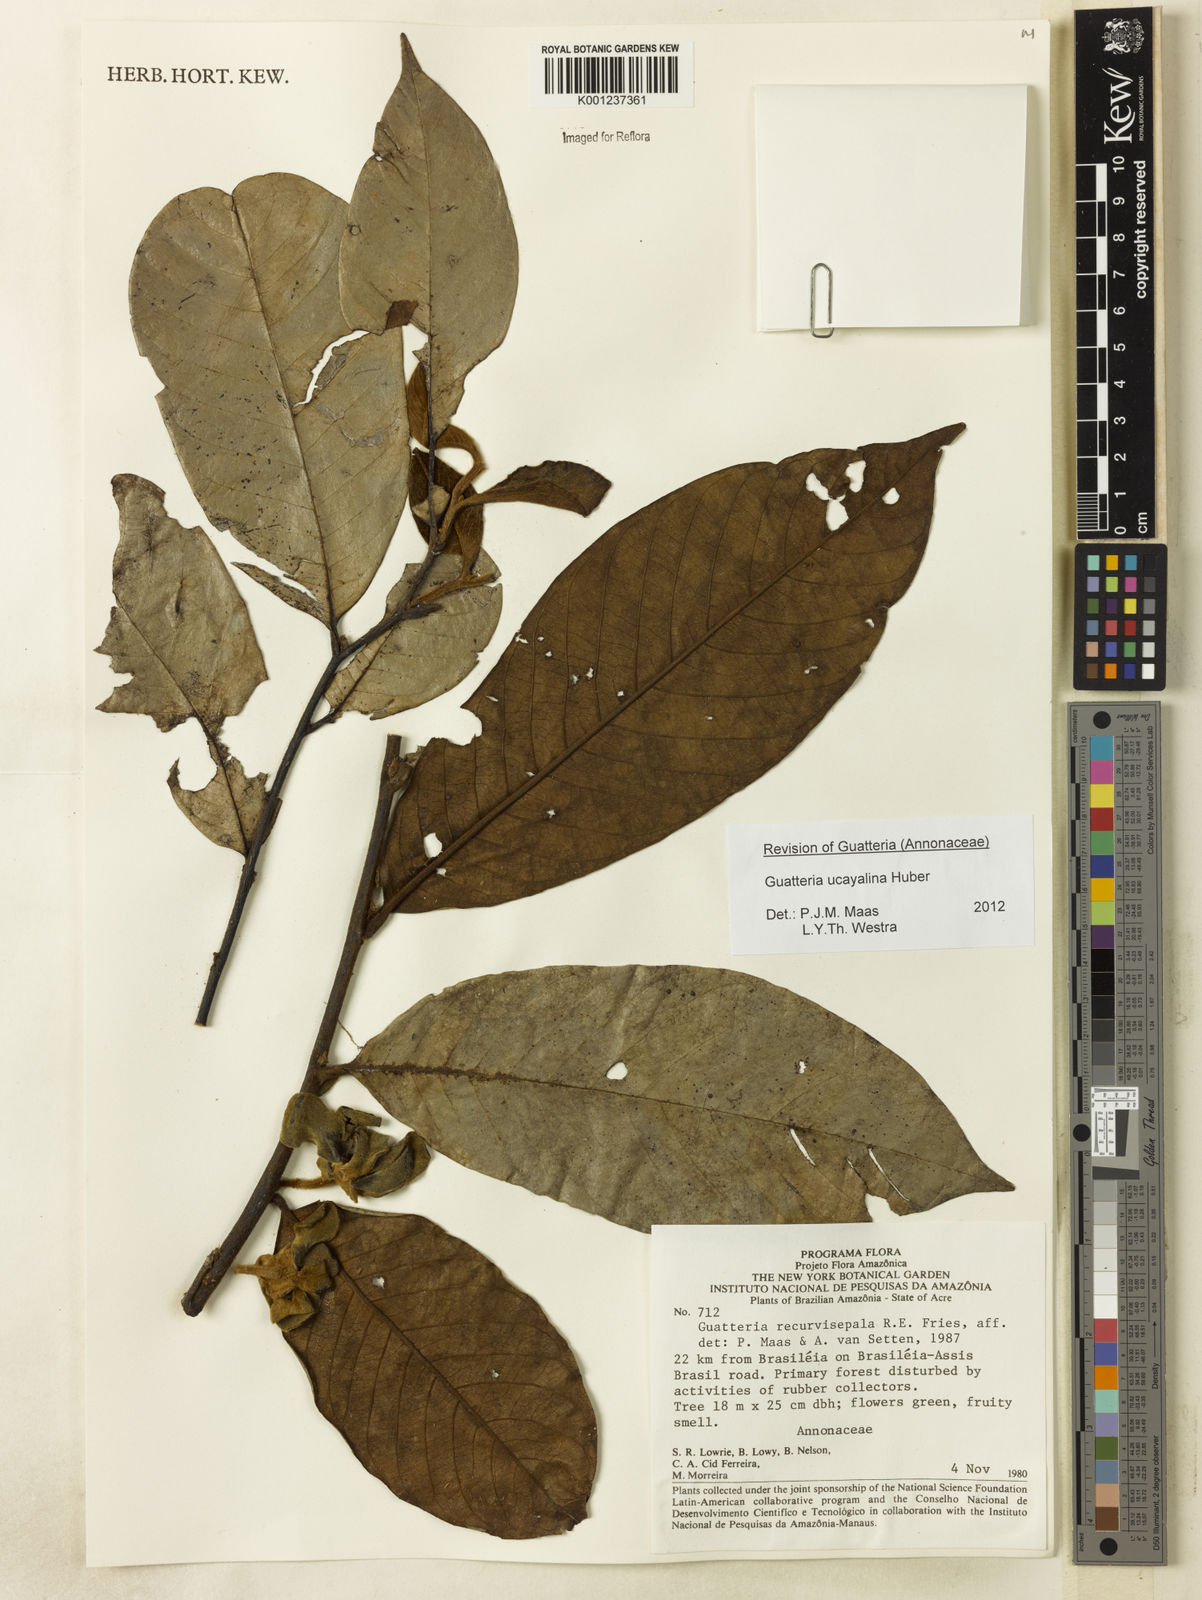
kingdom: Plantae
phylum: Tracheophyta
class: Magnoliopsida
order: Magnoliales
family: Annonaceae
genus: Guatteria
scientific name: Guatteria blepharophylla
